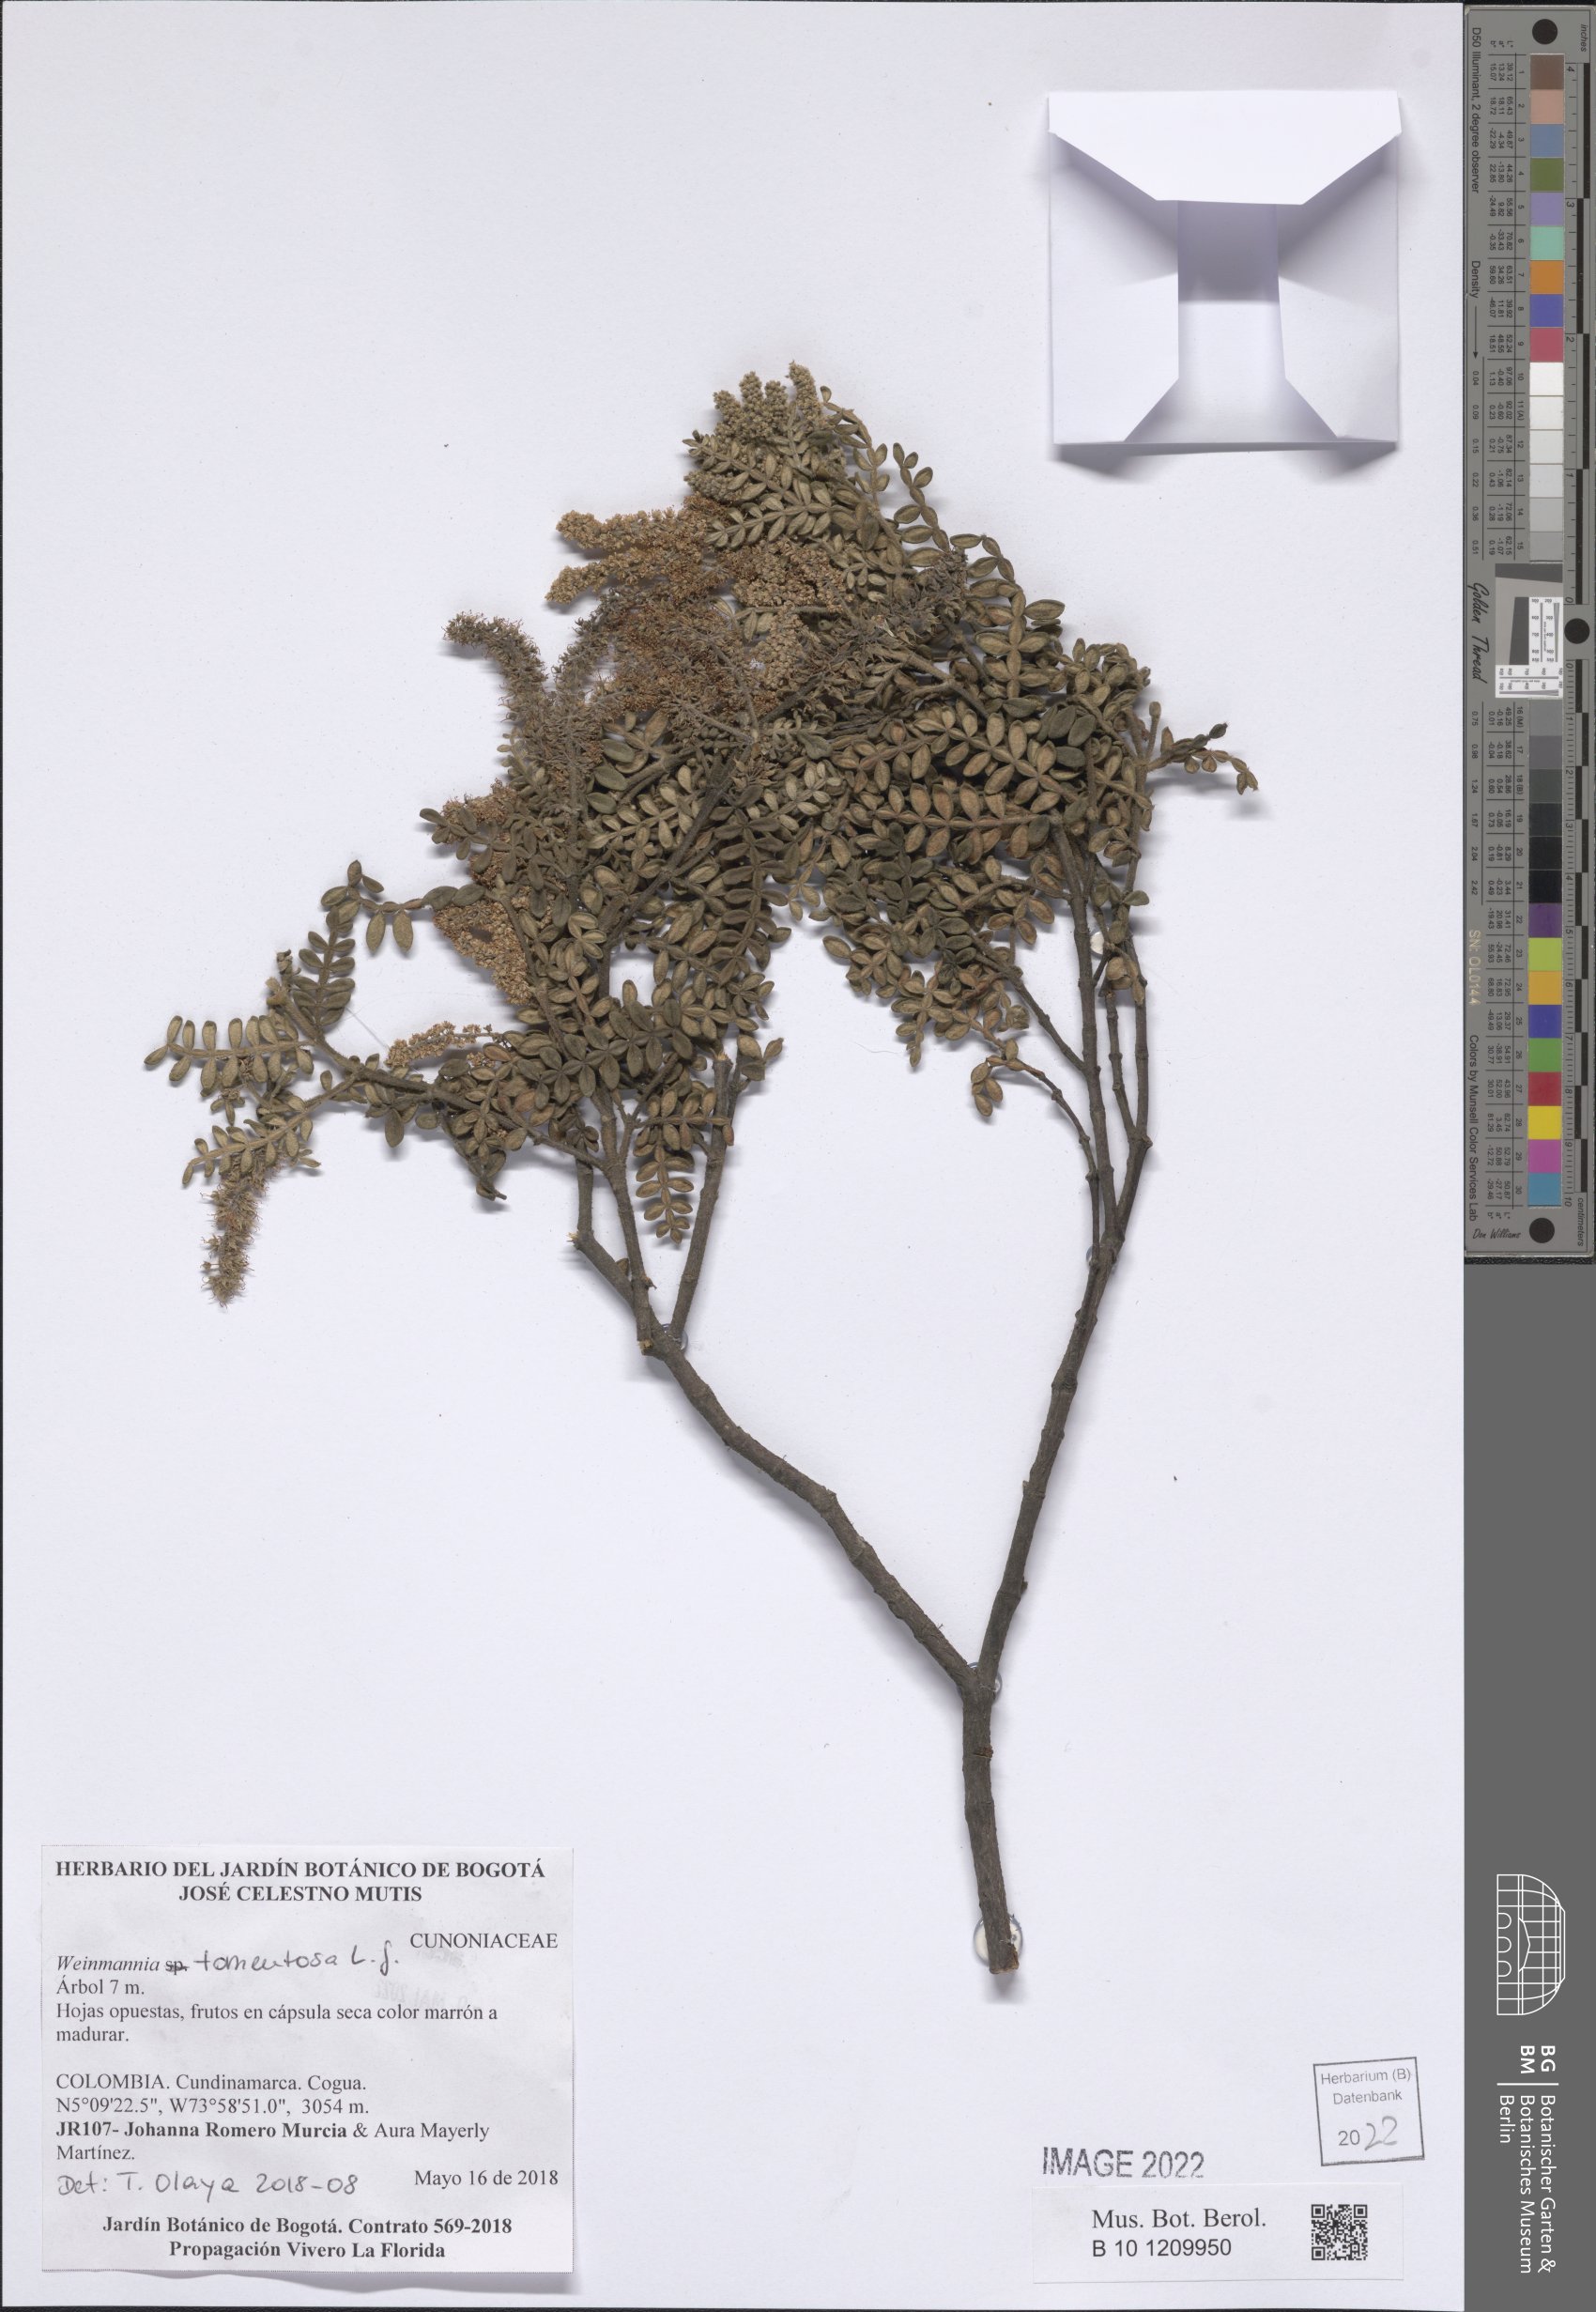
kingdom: Plantae
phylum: Tracheophyta
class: Magnoliopsida
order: Oxalidales
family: Cunoniaceae
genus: Weinmannia
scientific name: Weinmannia tomentosa
